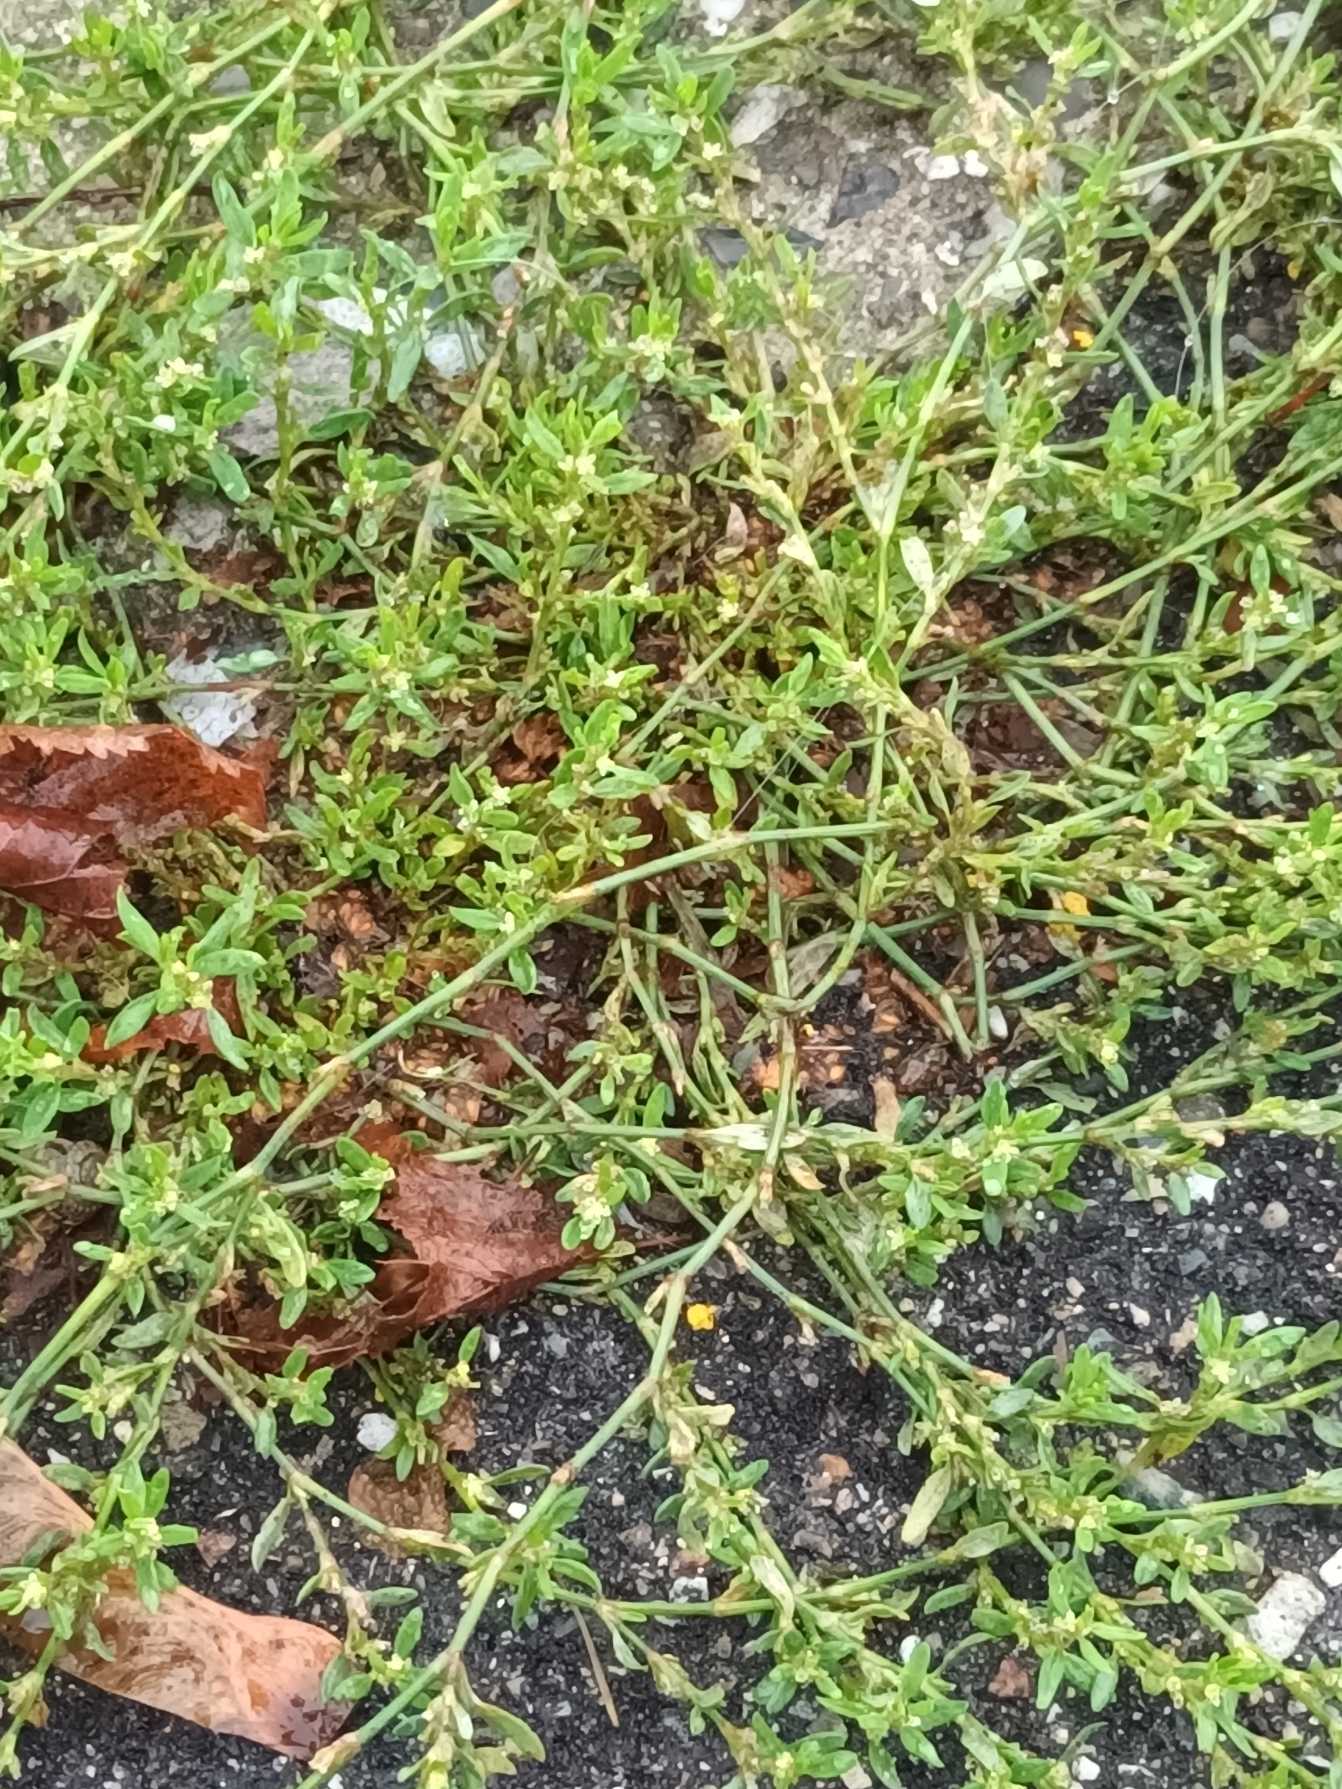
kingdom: Plantae
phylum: Tracheophyta
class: Magnoliopsida
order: Caryophyllales
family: Polygonaceae
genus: Polygonum
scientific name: Polygonum arenastrum
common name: Liggende vej-pileurt
